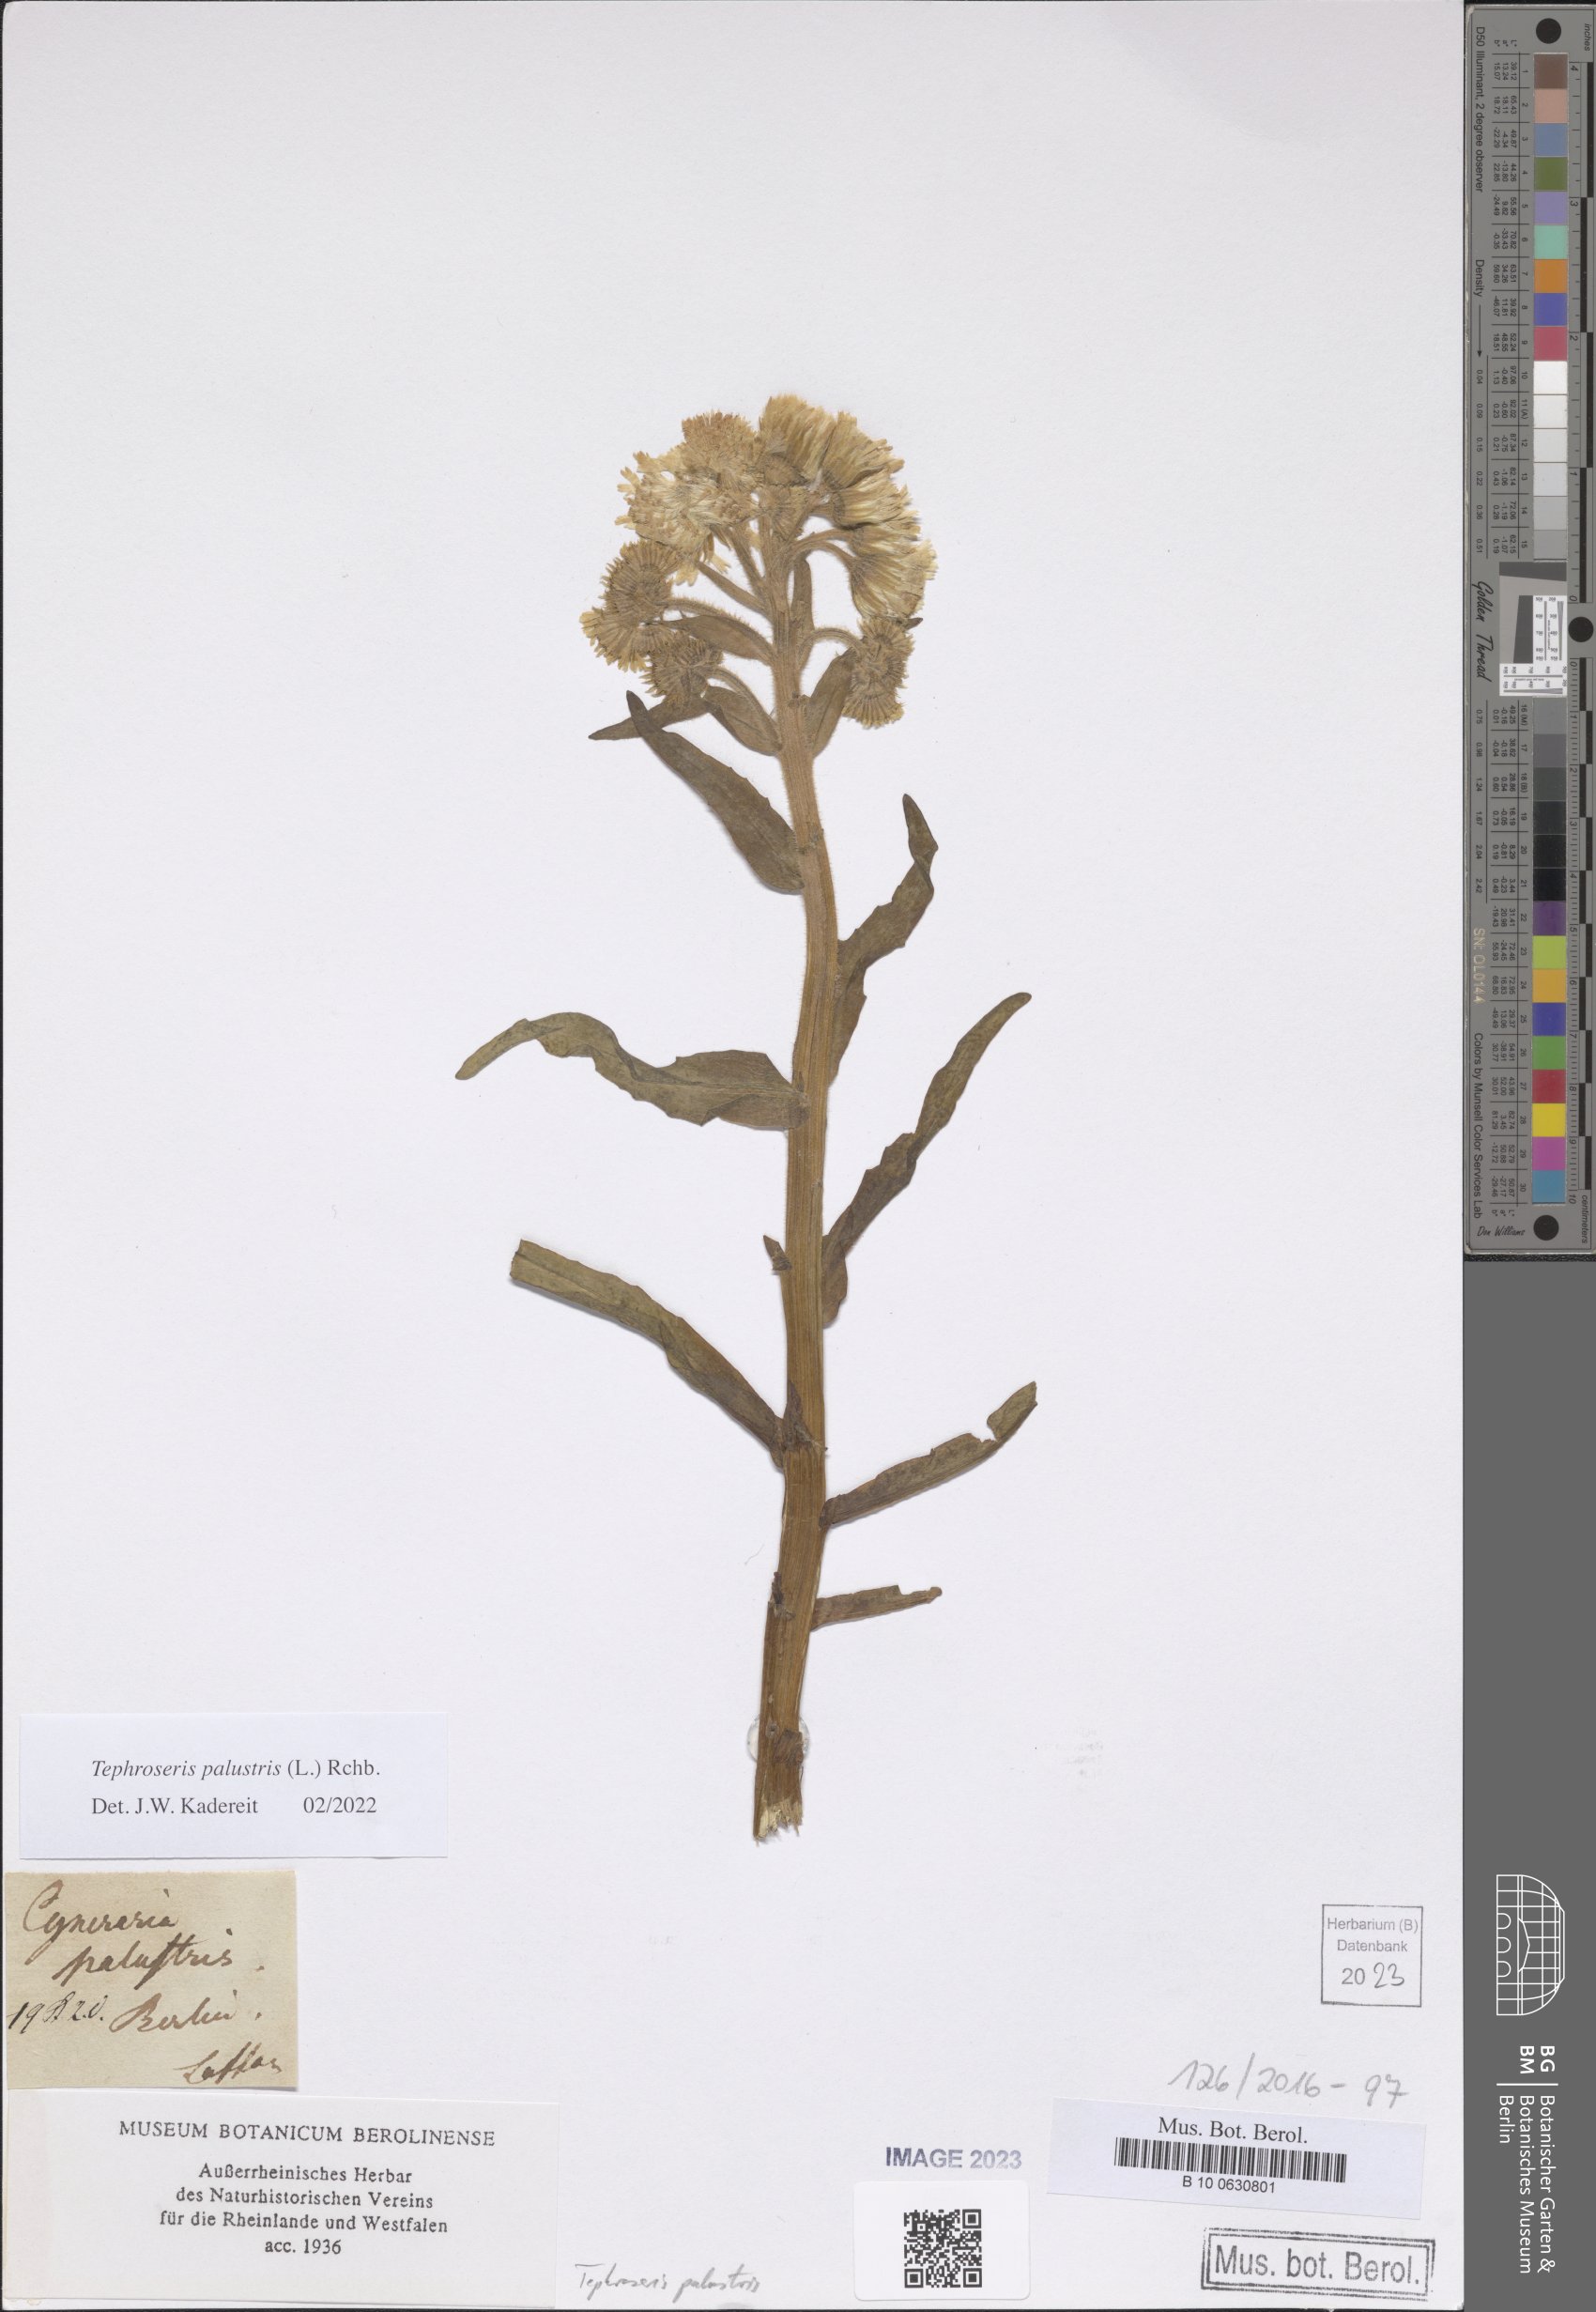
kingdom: Plantae
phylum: Tracheophyta
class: Magnoliopsida
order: Asterales
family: Asteraceae
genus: Tephroseris
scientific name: Tephroseris palustris
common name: Marsh fleawort
